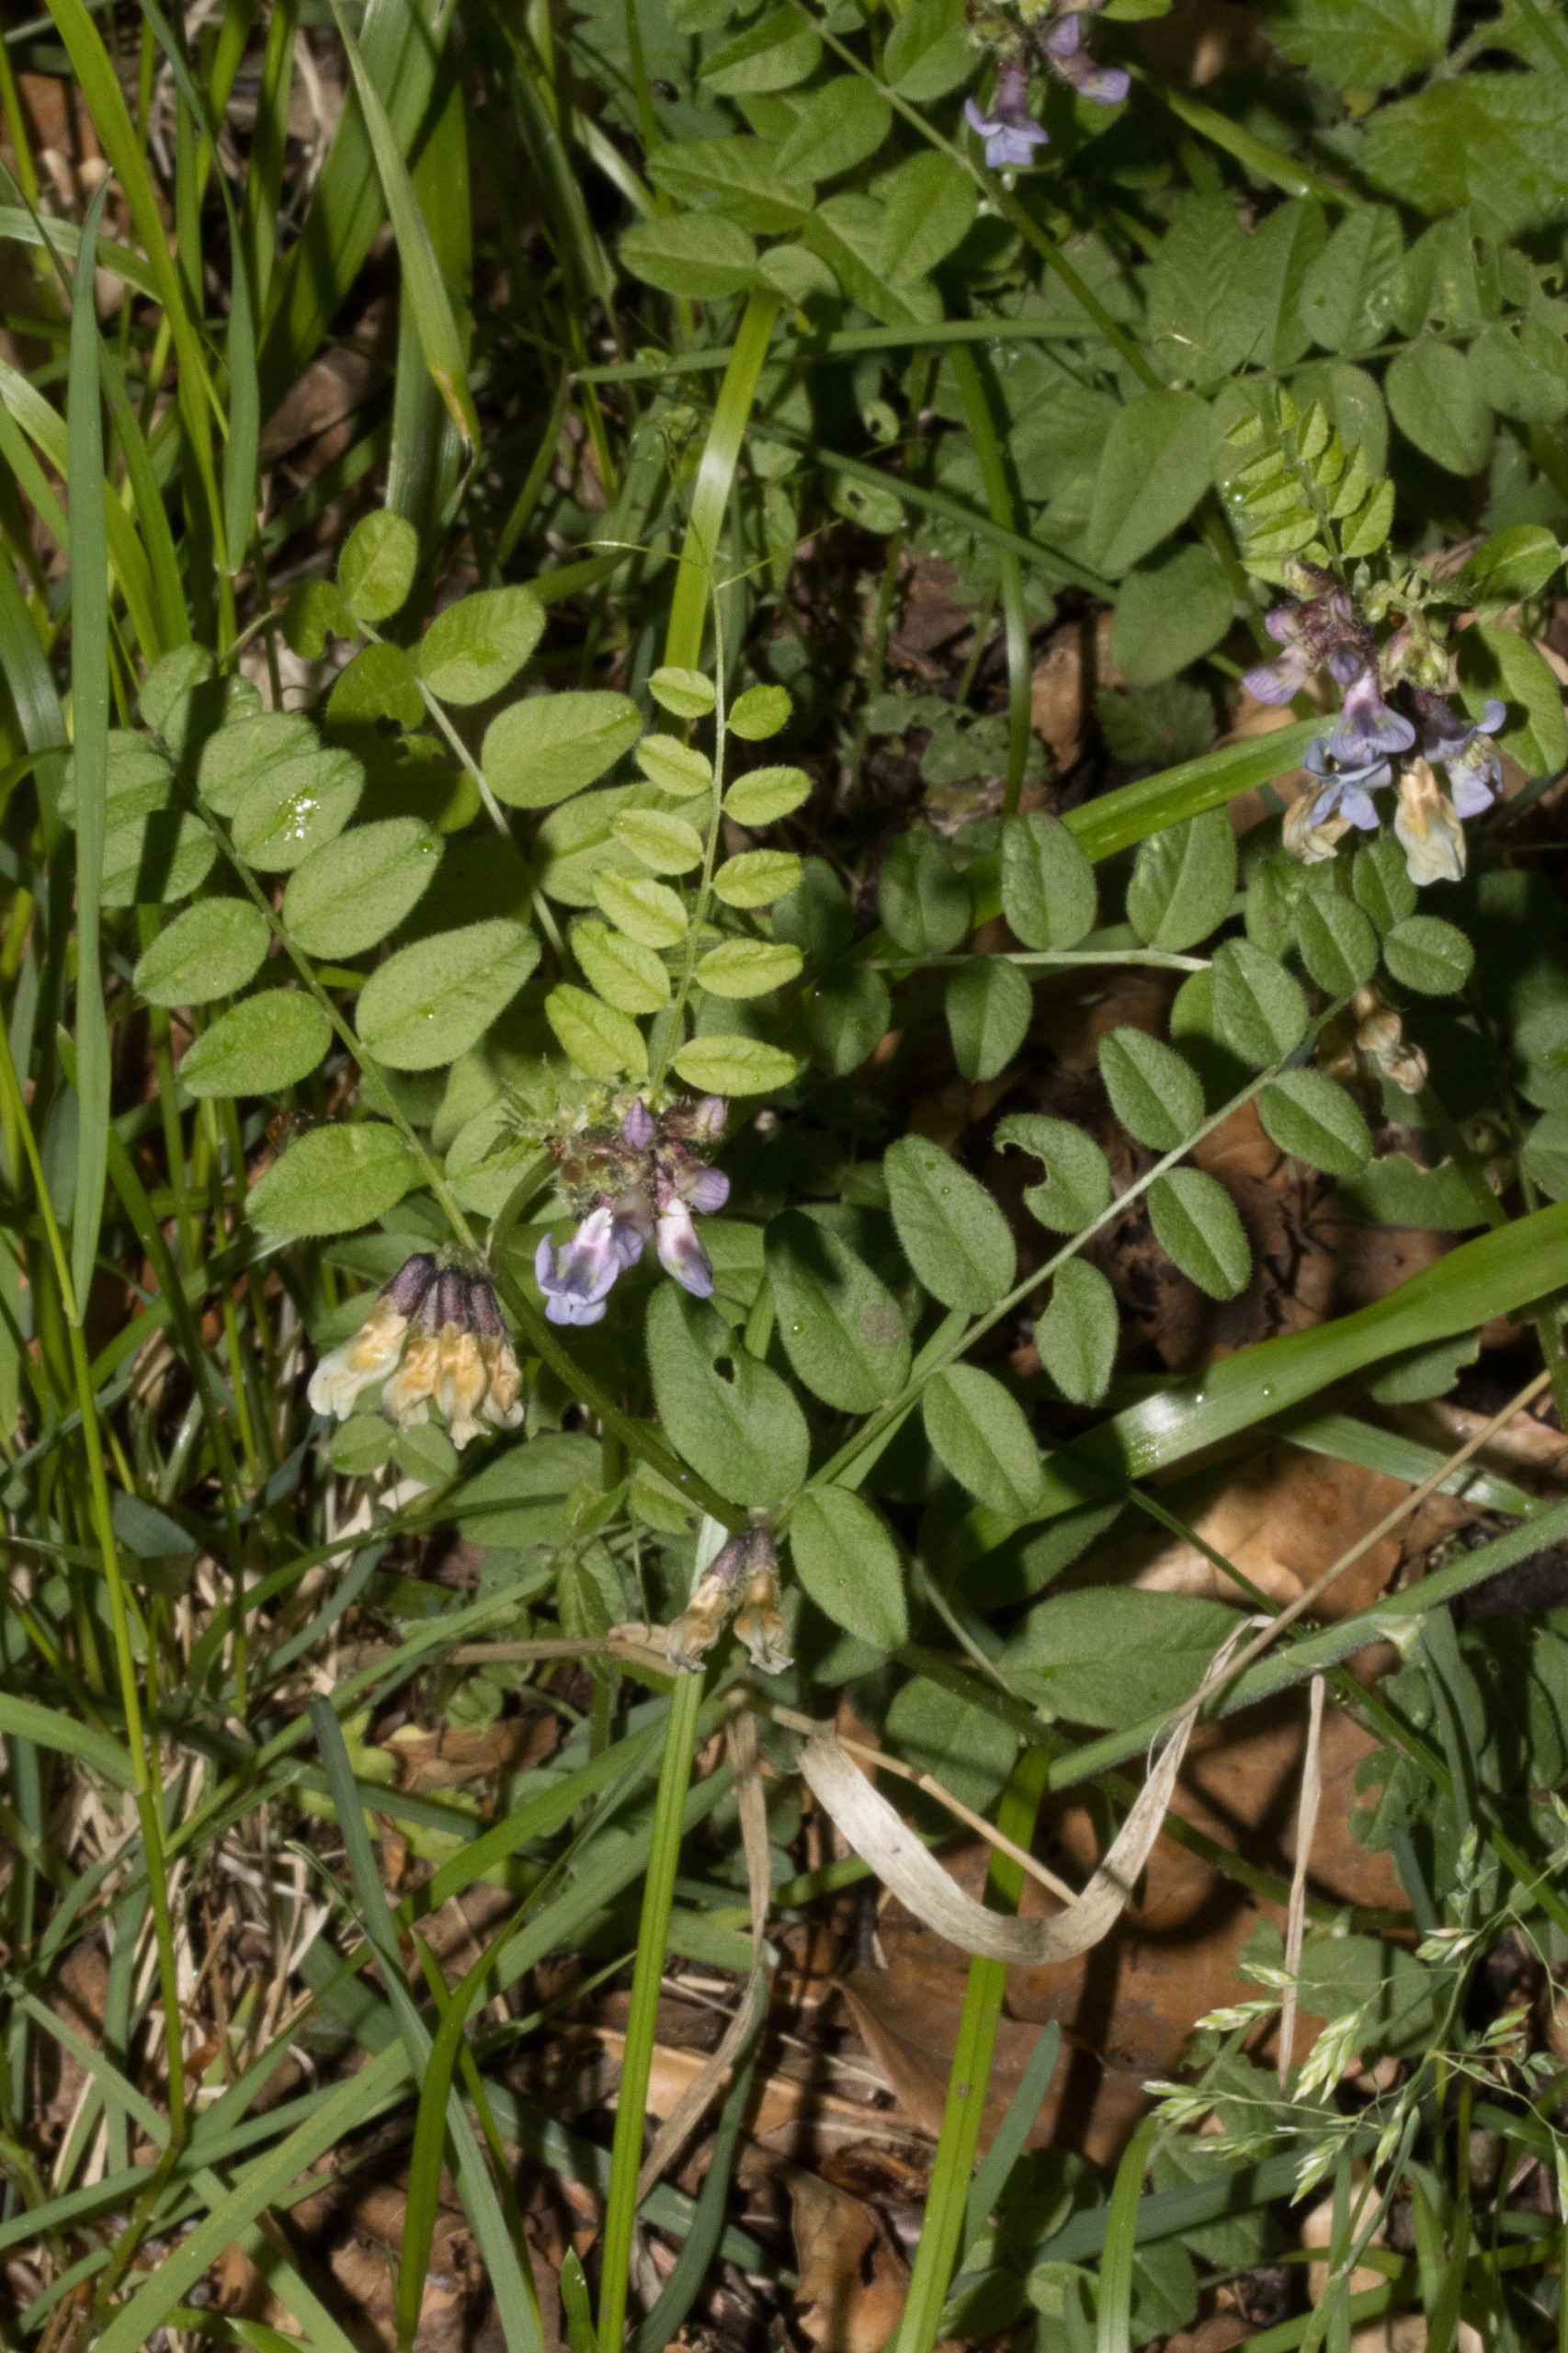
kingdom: Plantae
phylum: Tracheophyta
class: Magnoliopsida
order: Fabales
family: Fabaceae
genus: Vicia
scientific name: Vicia sepium
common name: Gærde-vikke
